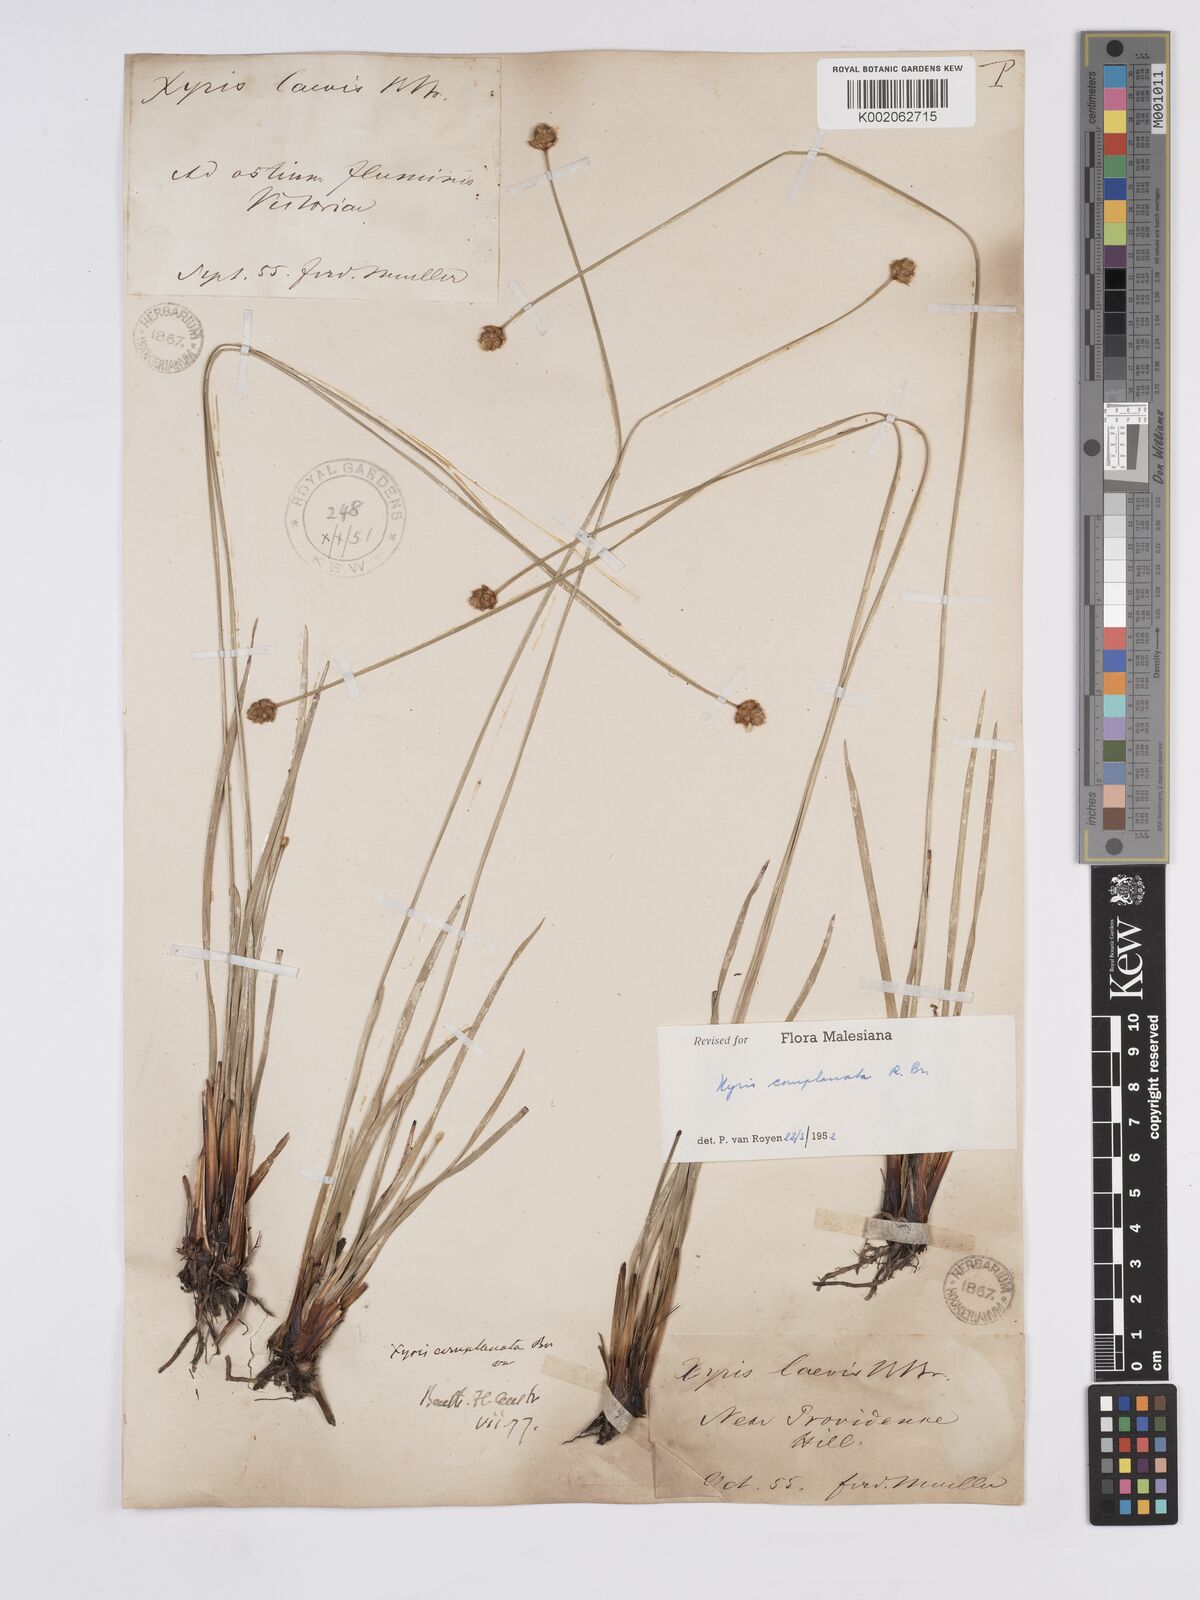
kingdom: Plantae
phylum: Tracheophyta
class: Liliopsida
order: Poales
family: Xyridaceae
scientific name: Xyridaceae
